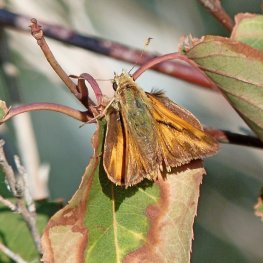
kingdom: Animalia
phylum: Arthropoda
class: Insecta
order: Lepidoptera
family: Hesperiidae
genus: Ochlodes
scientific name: Ochlodes sylvanoides
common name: Woodland Skipper
